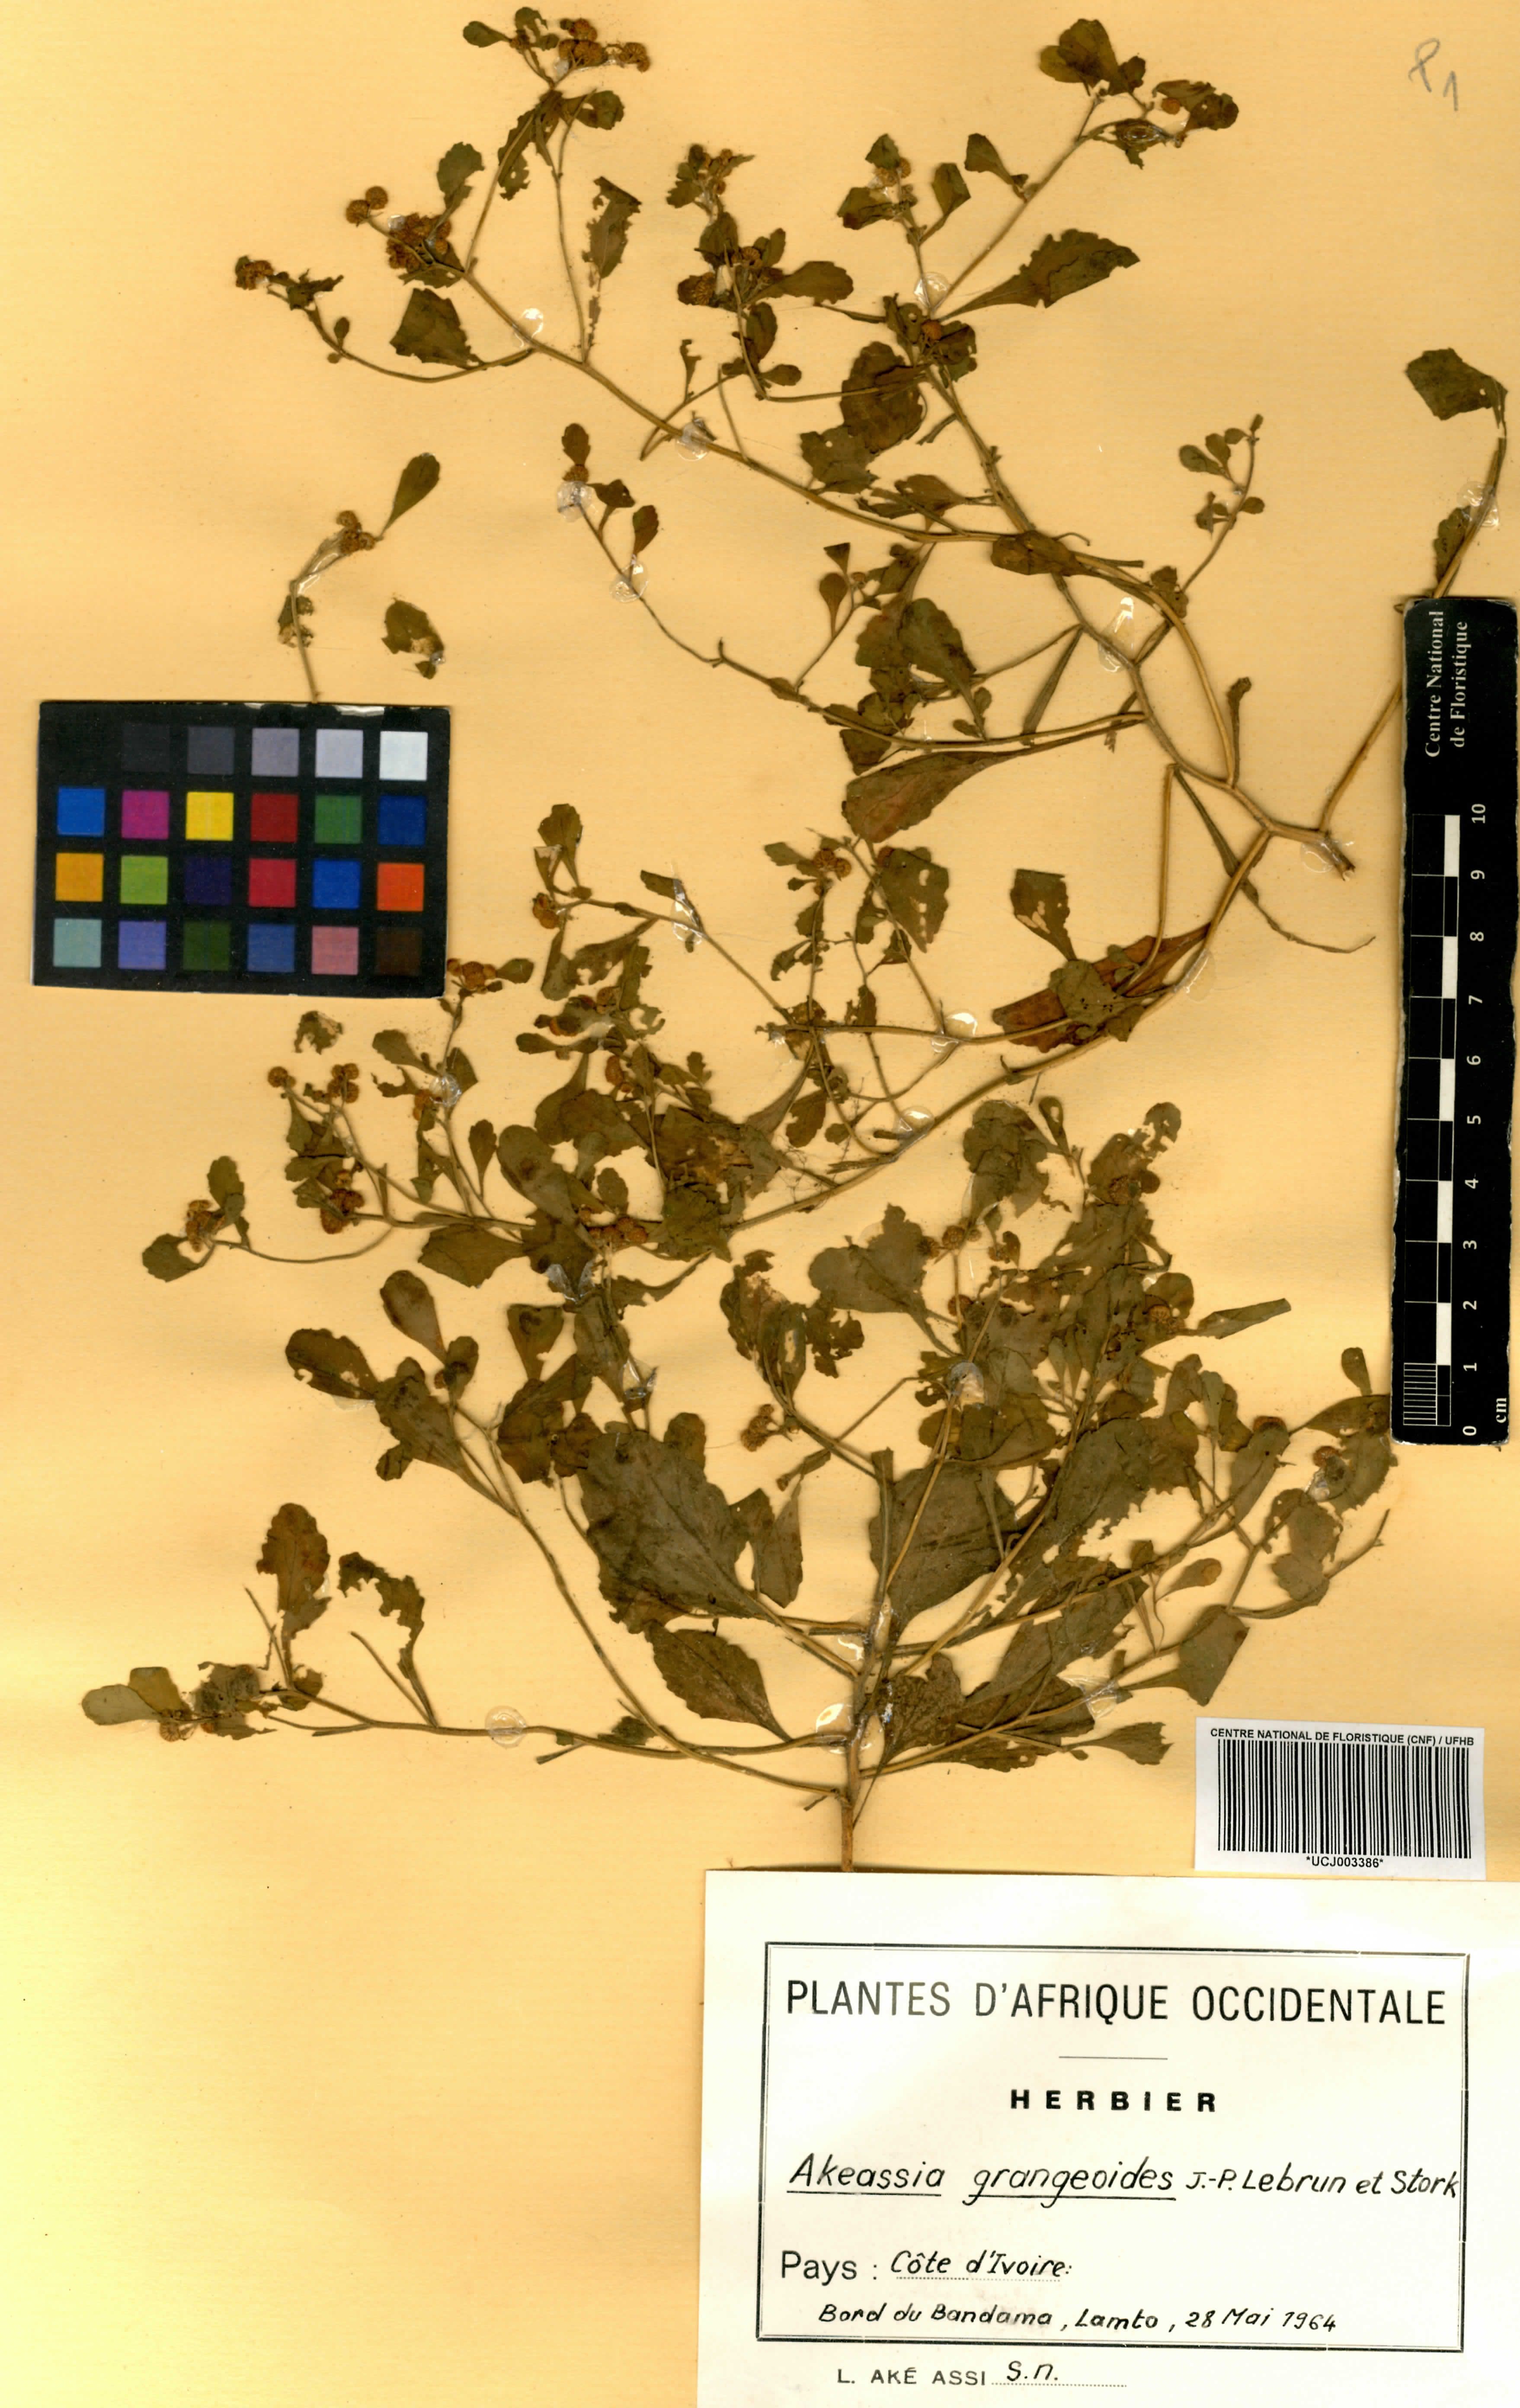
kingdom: Plantae
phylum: Tracheophyta
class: Magnoliopsida
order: Asterales
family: Asteraceae
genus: Grangea
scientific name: Grangea grangeoides
